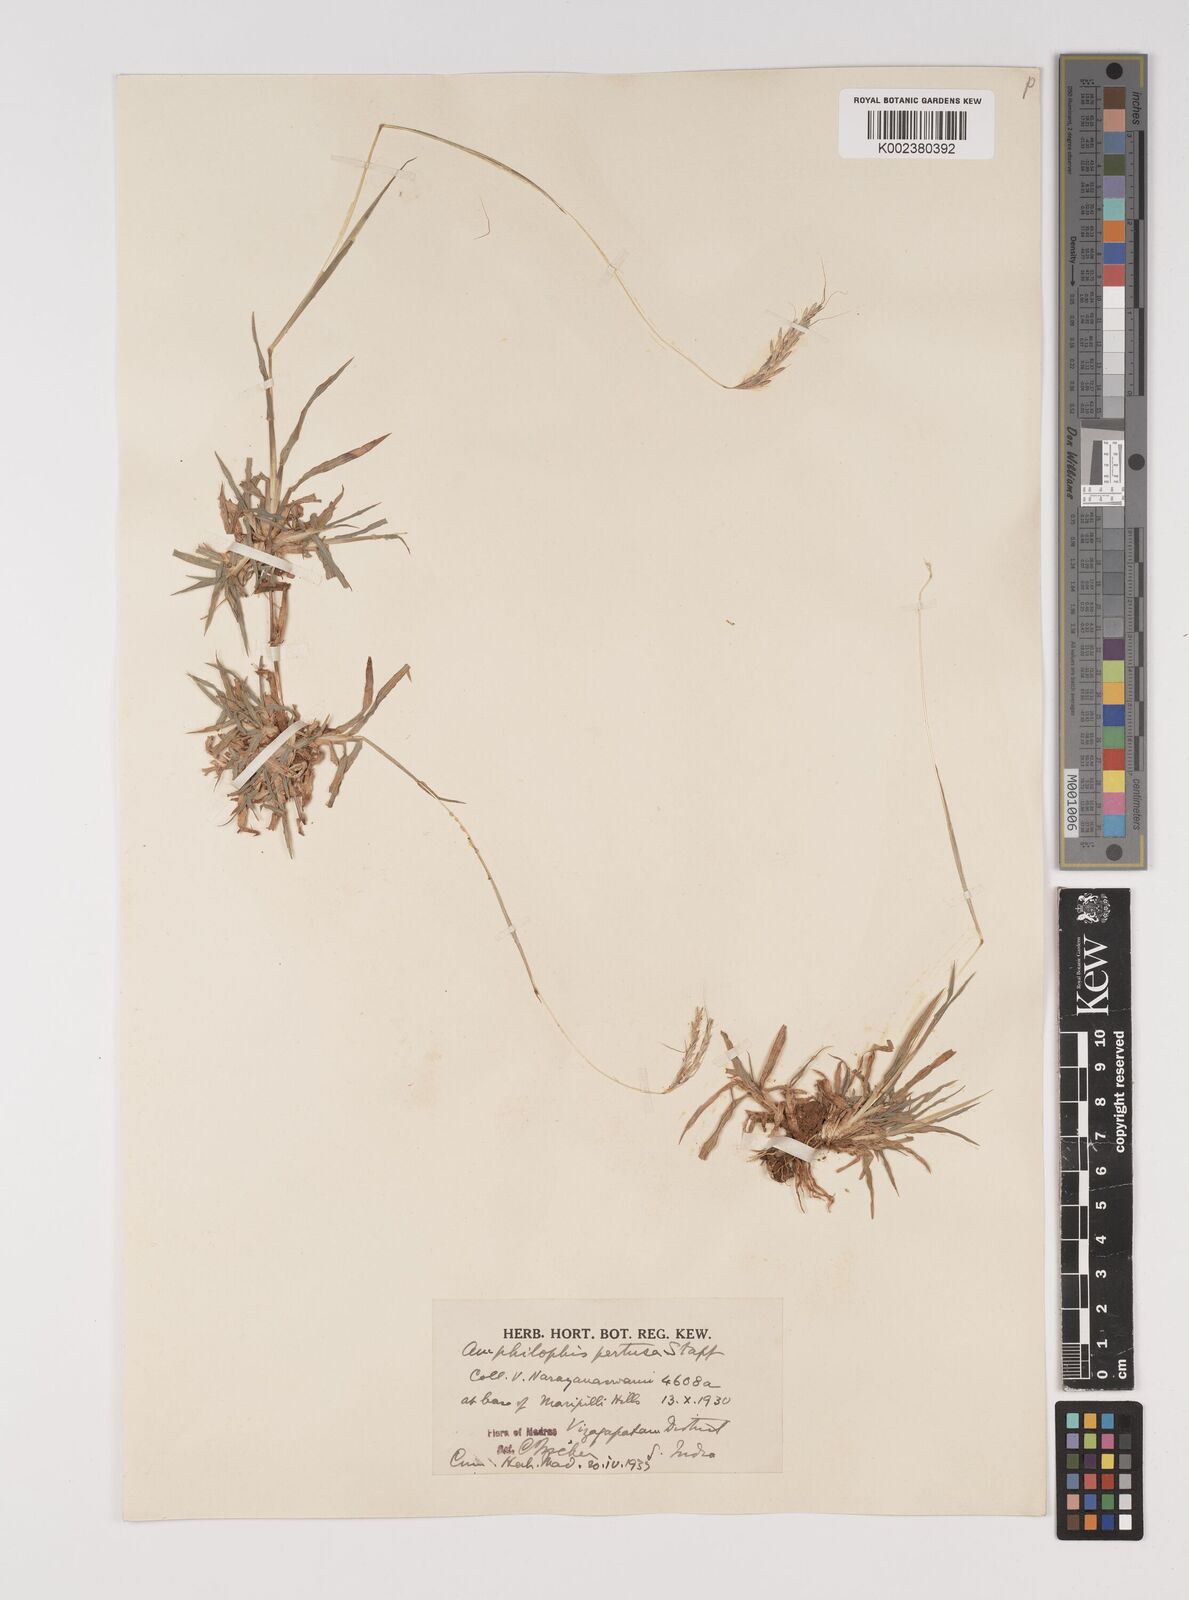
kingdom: Plantae
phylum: Tracheophyta
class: Liliopsida
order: Poales
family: Poaceae
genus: Bothriochloa
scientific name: Bothriochloa pertusa
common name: Pitted beardgrass
